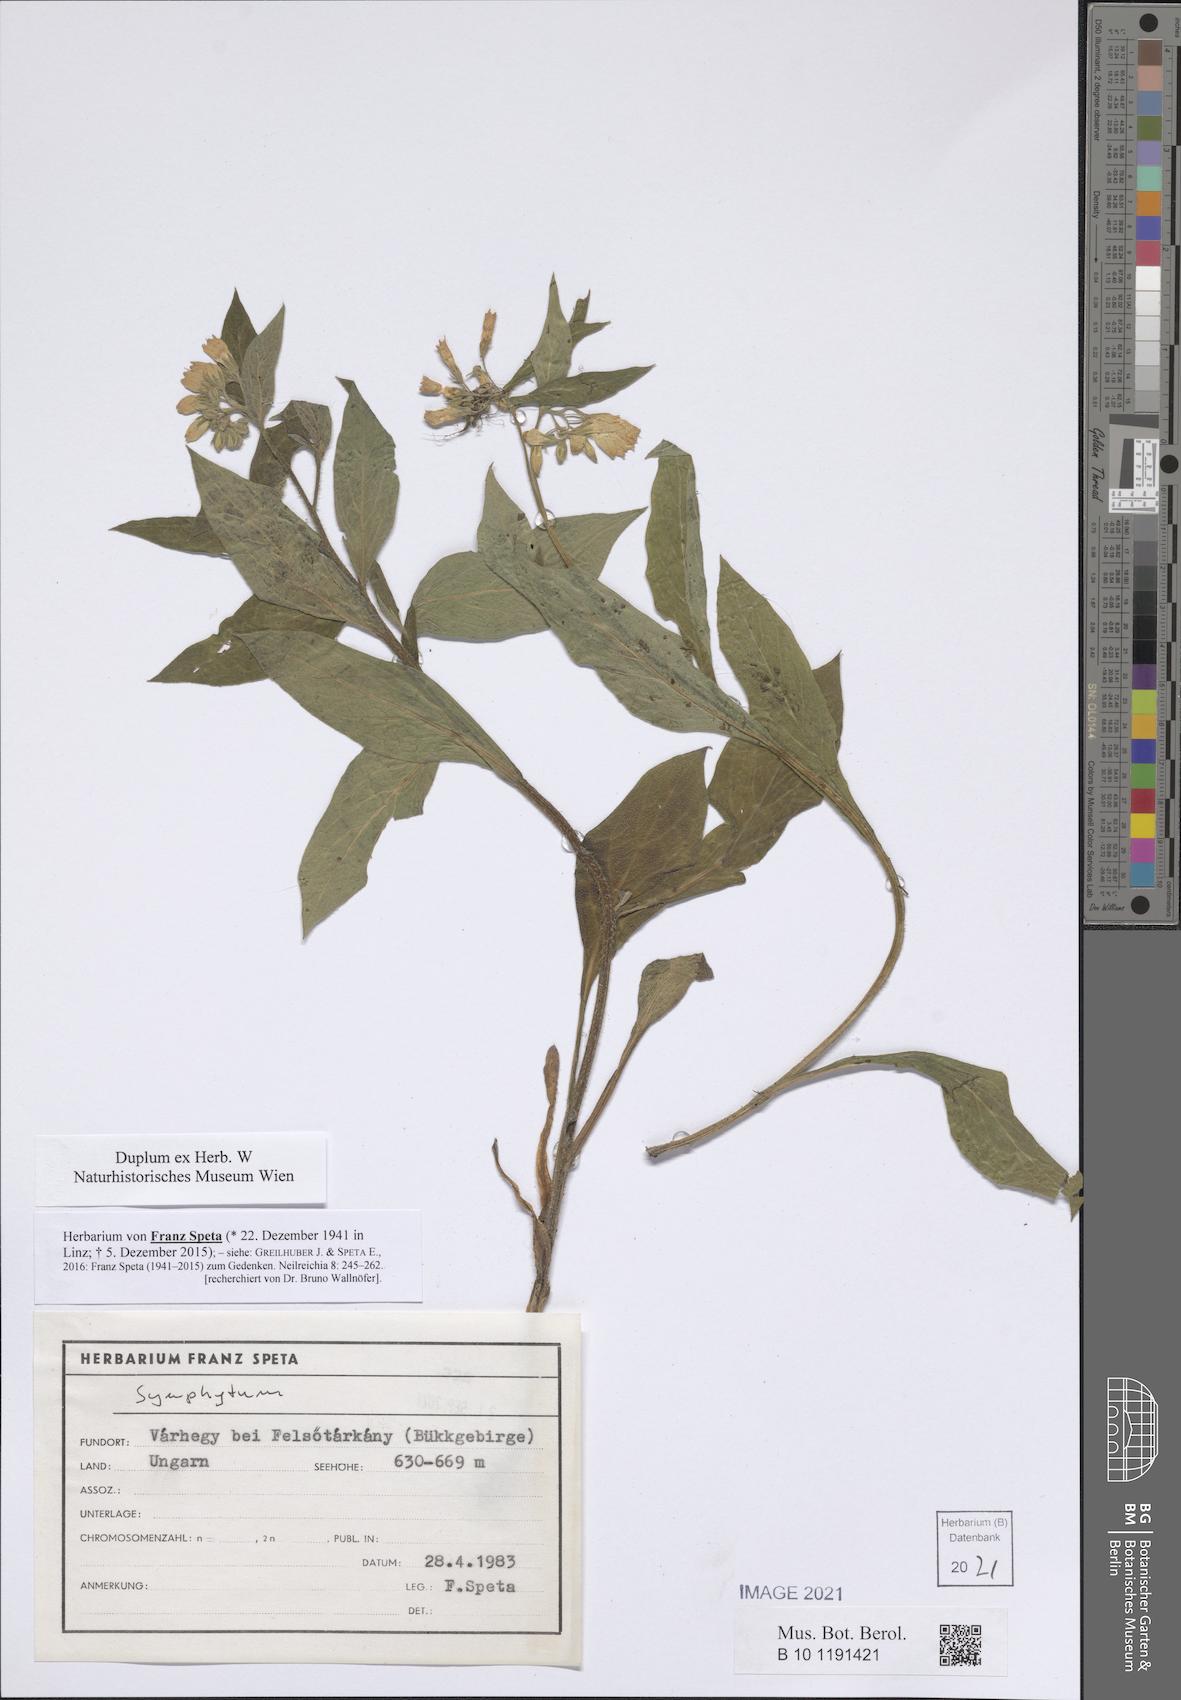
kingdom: Plantae
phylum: Tracheophyta
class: Magnoliopsida
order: Boraginales
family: Boraginaceae
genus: Symphytum
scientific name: Symphytum
